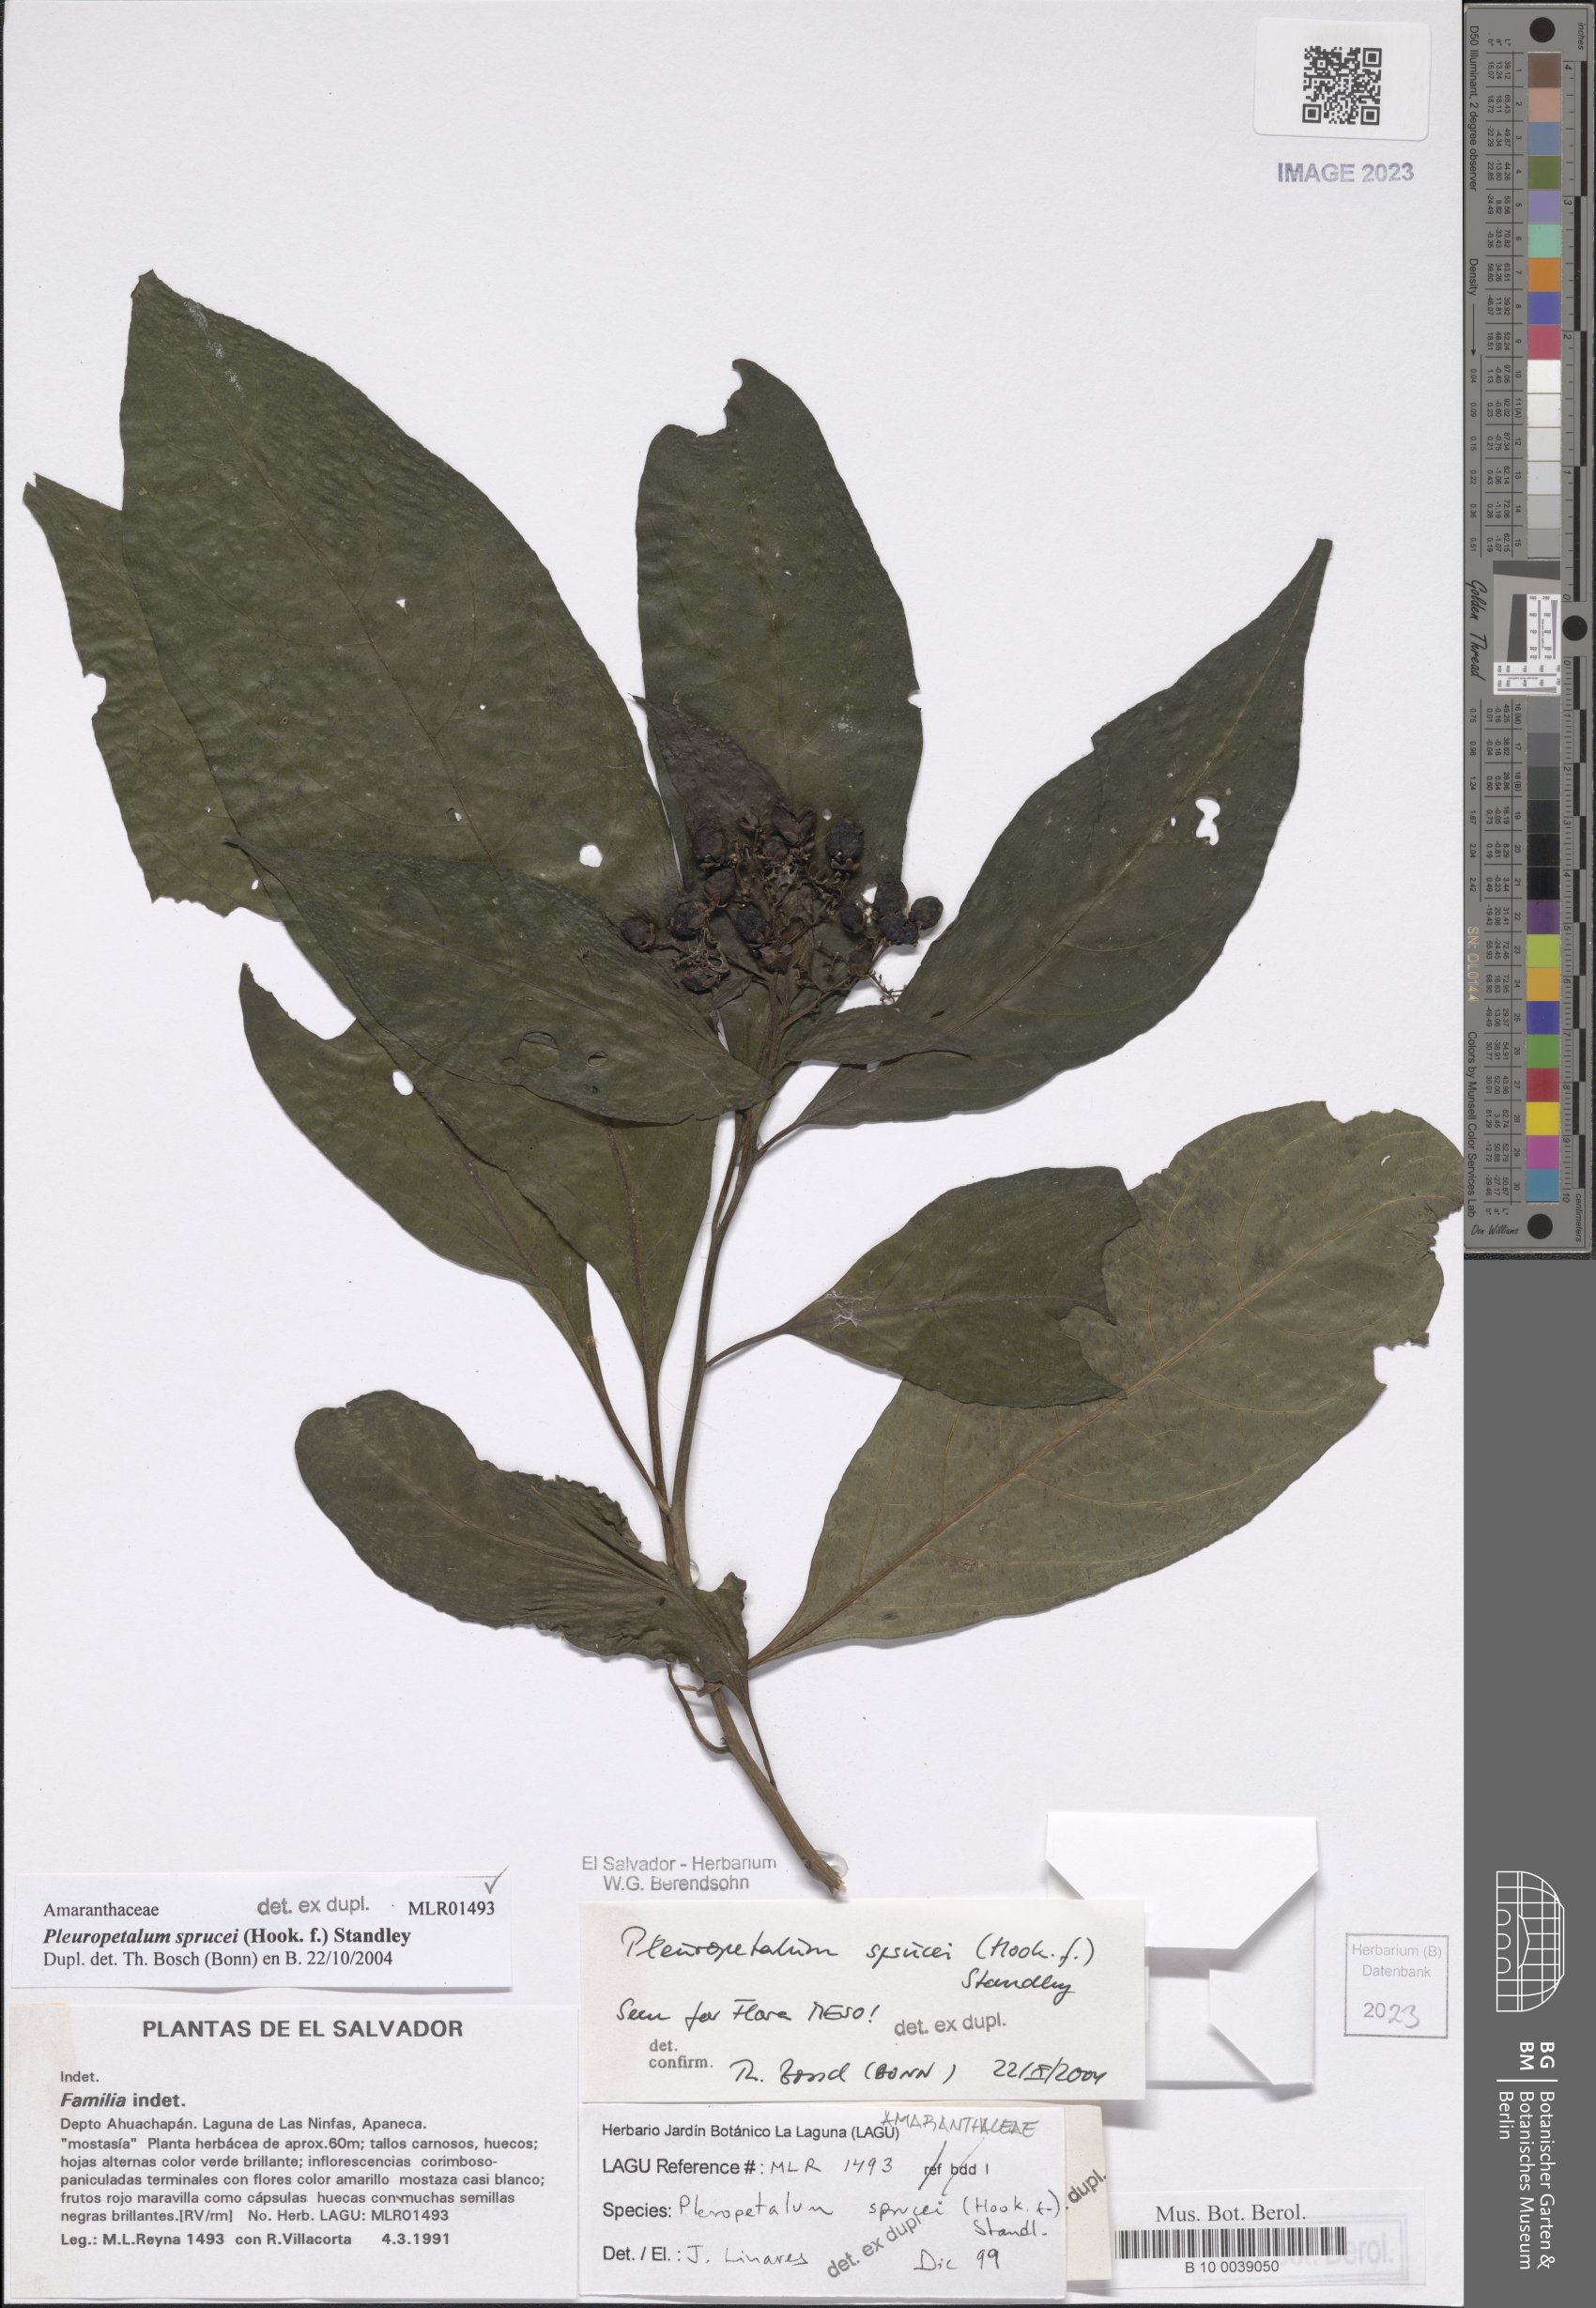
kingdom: Plantae
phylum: Tracheophyta
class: Magnoliopsida
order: Caryophyllales
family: Amaranthaceae
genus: Pleuropetalum
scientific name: Pleuropetalum sprucei
